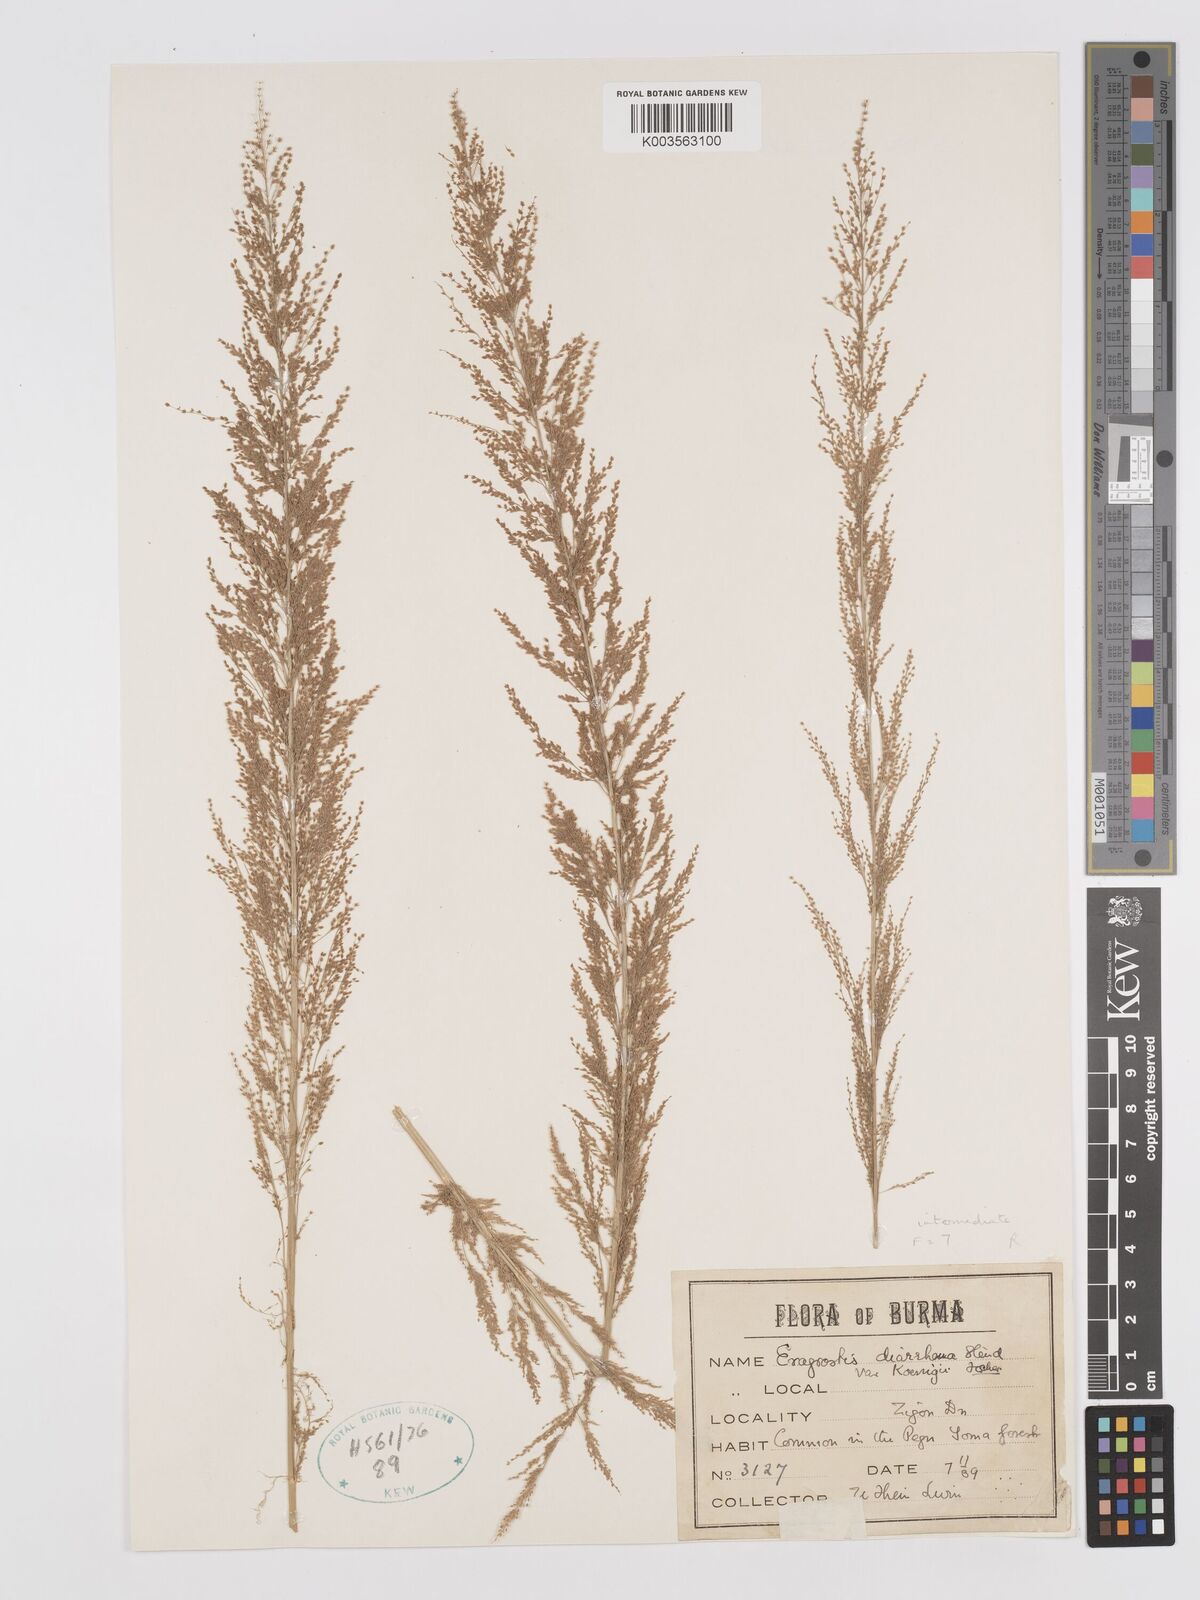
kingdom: Plantae
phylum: Tracheophyta
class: Liliopsida
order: Poales
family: Poaceae
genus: Eragrostis
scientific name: Eragrostis japonica
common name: Pond lovegrass
